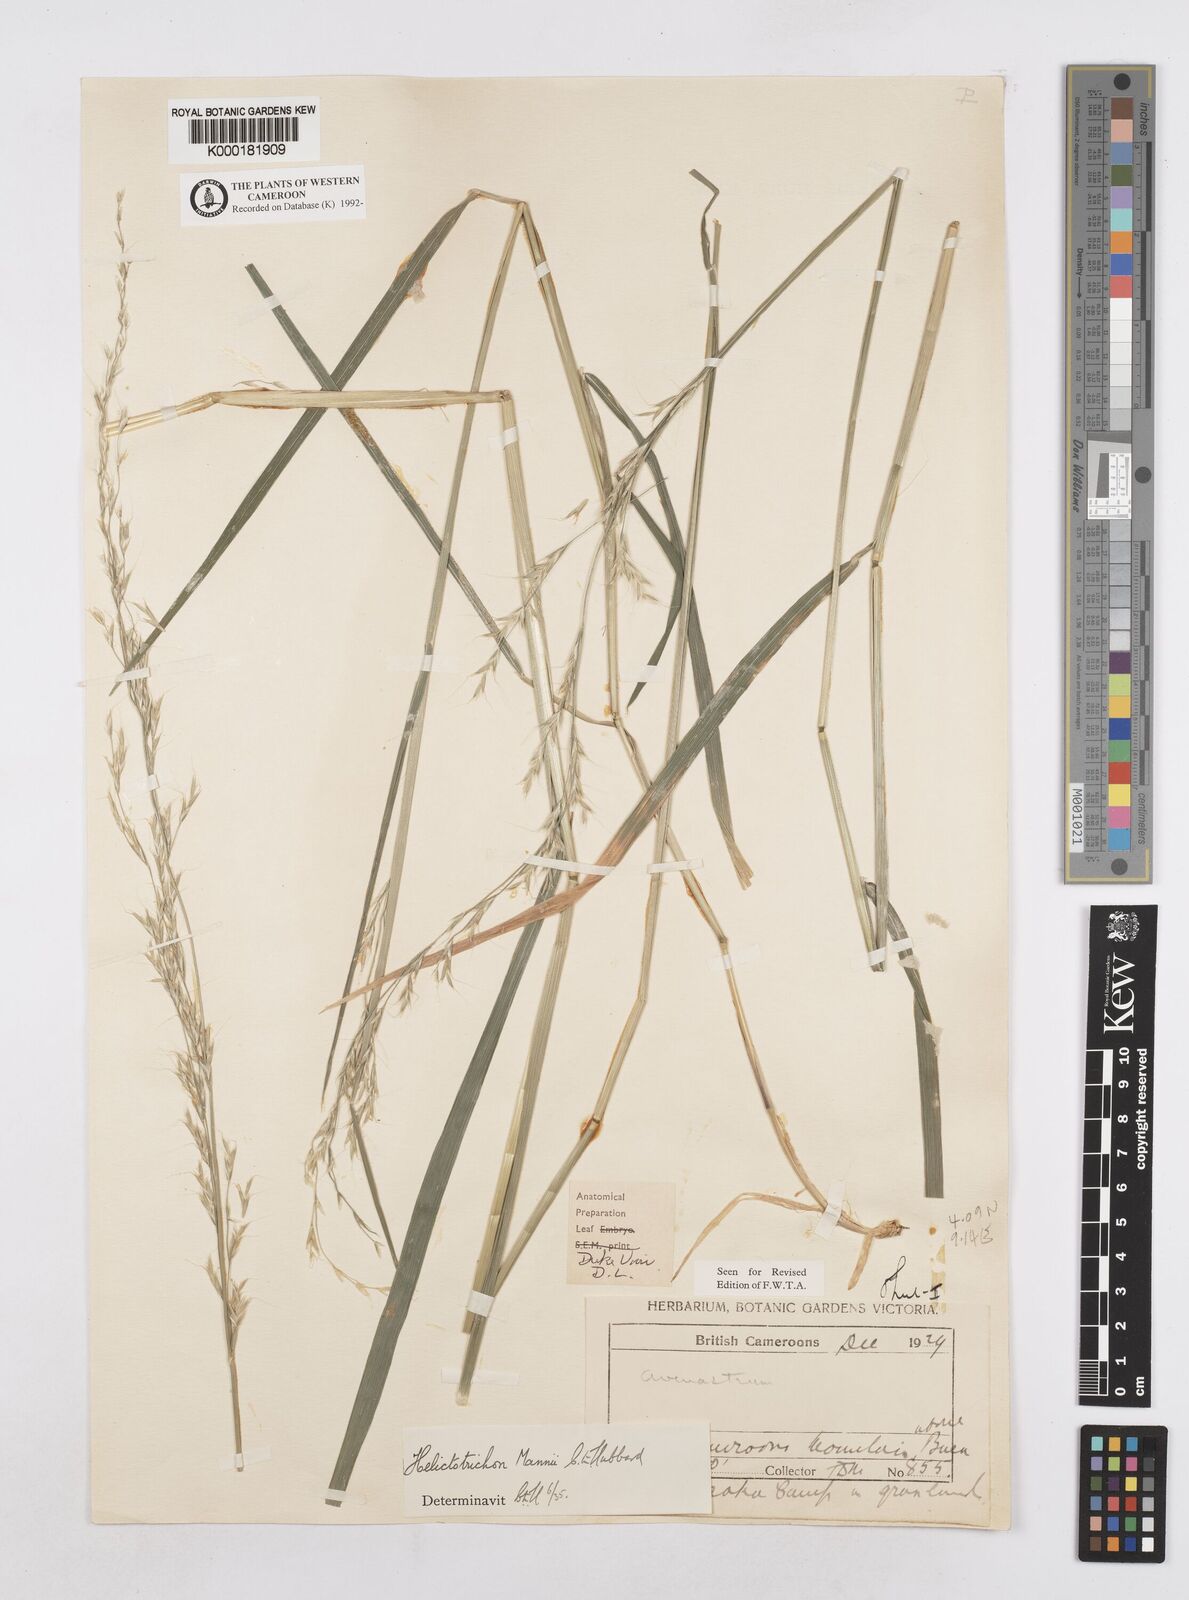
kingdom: Plantae
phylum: Tracheophyta
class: Liliopsida
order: Poales
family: Poaceae
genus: Trisetopsis
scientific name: Trisetopsis mannii
